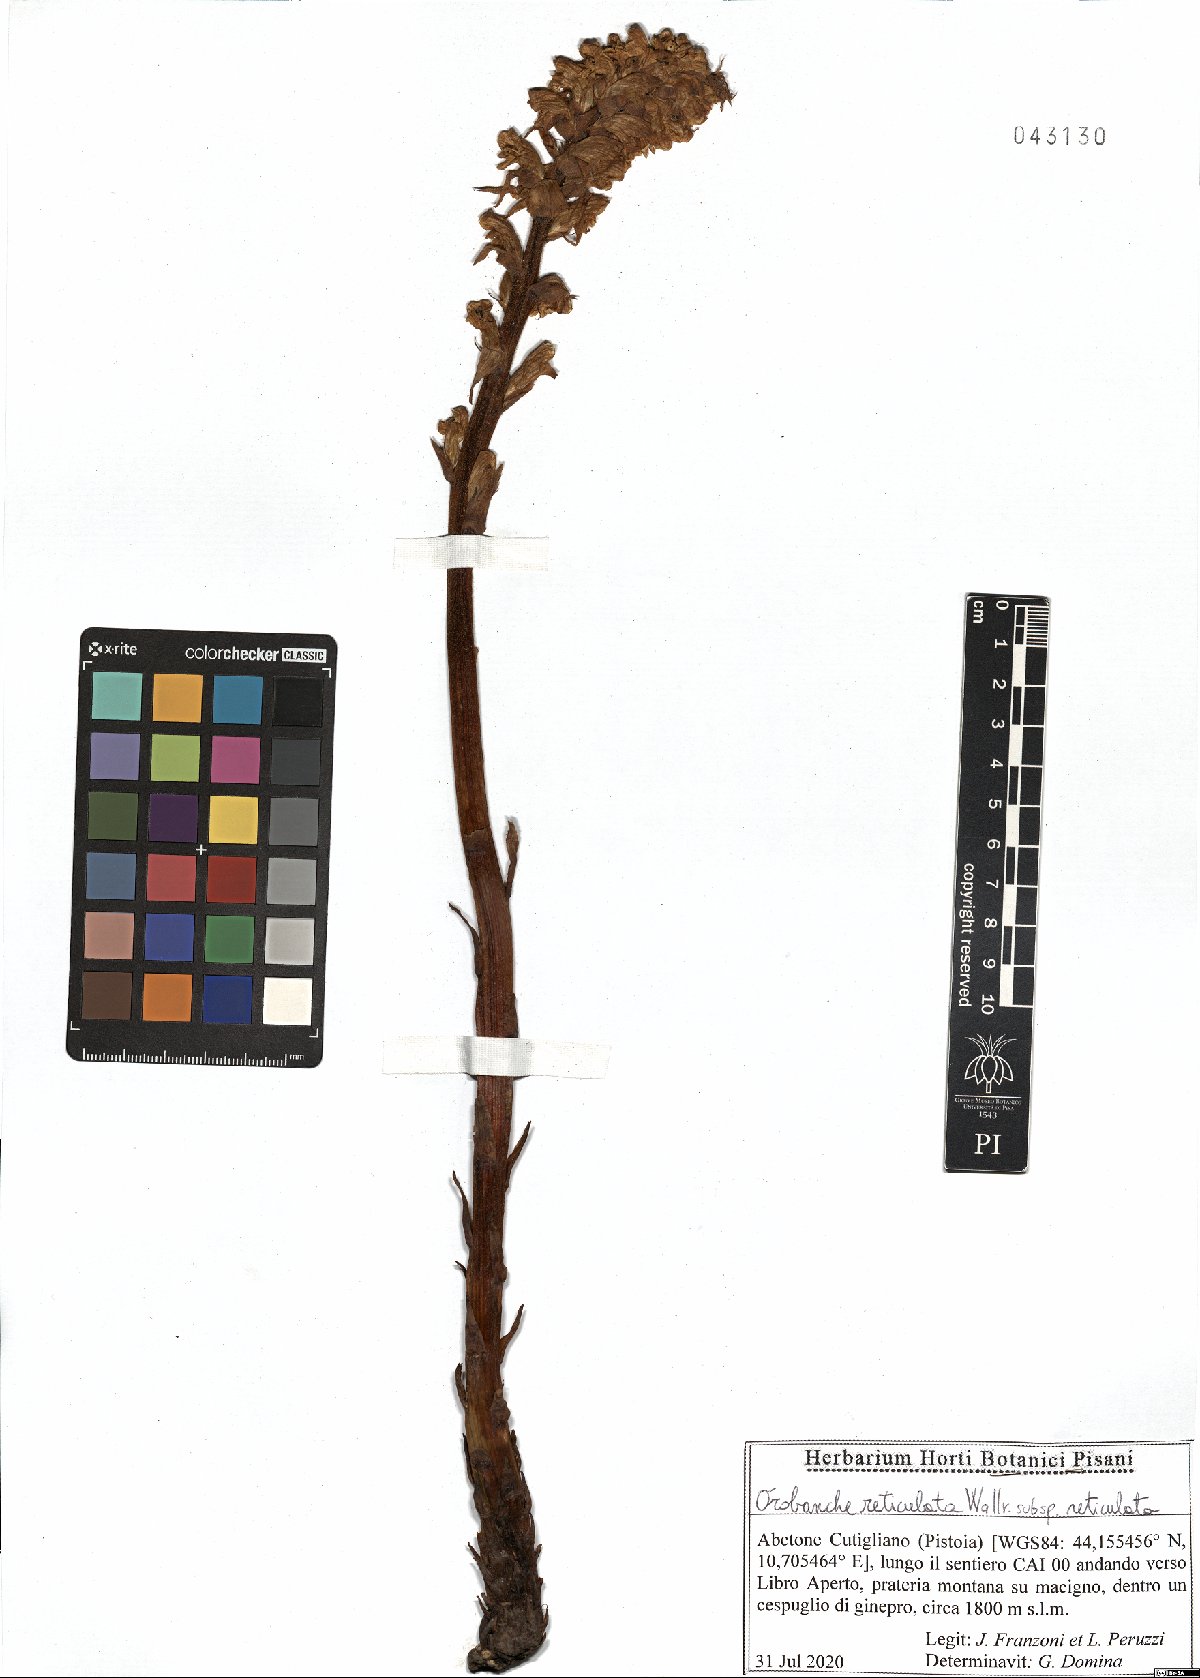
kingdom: Plantae
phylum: Tracheophyta
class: Magnoliopsida
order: Lamiales
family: Orobanchaceae
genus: Orobanche
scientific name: Orobanche reticulata
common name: Thistle broomrape
